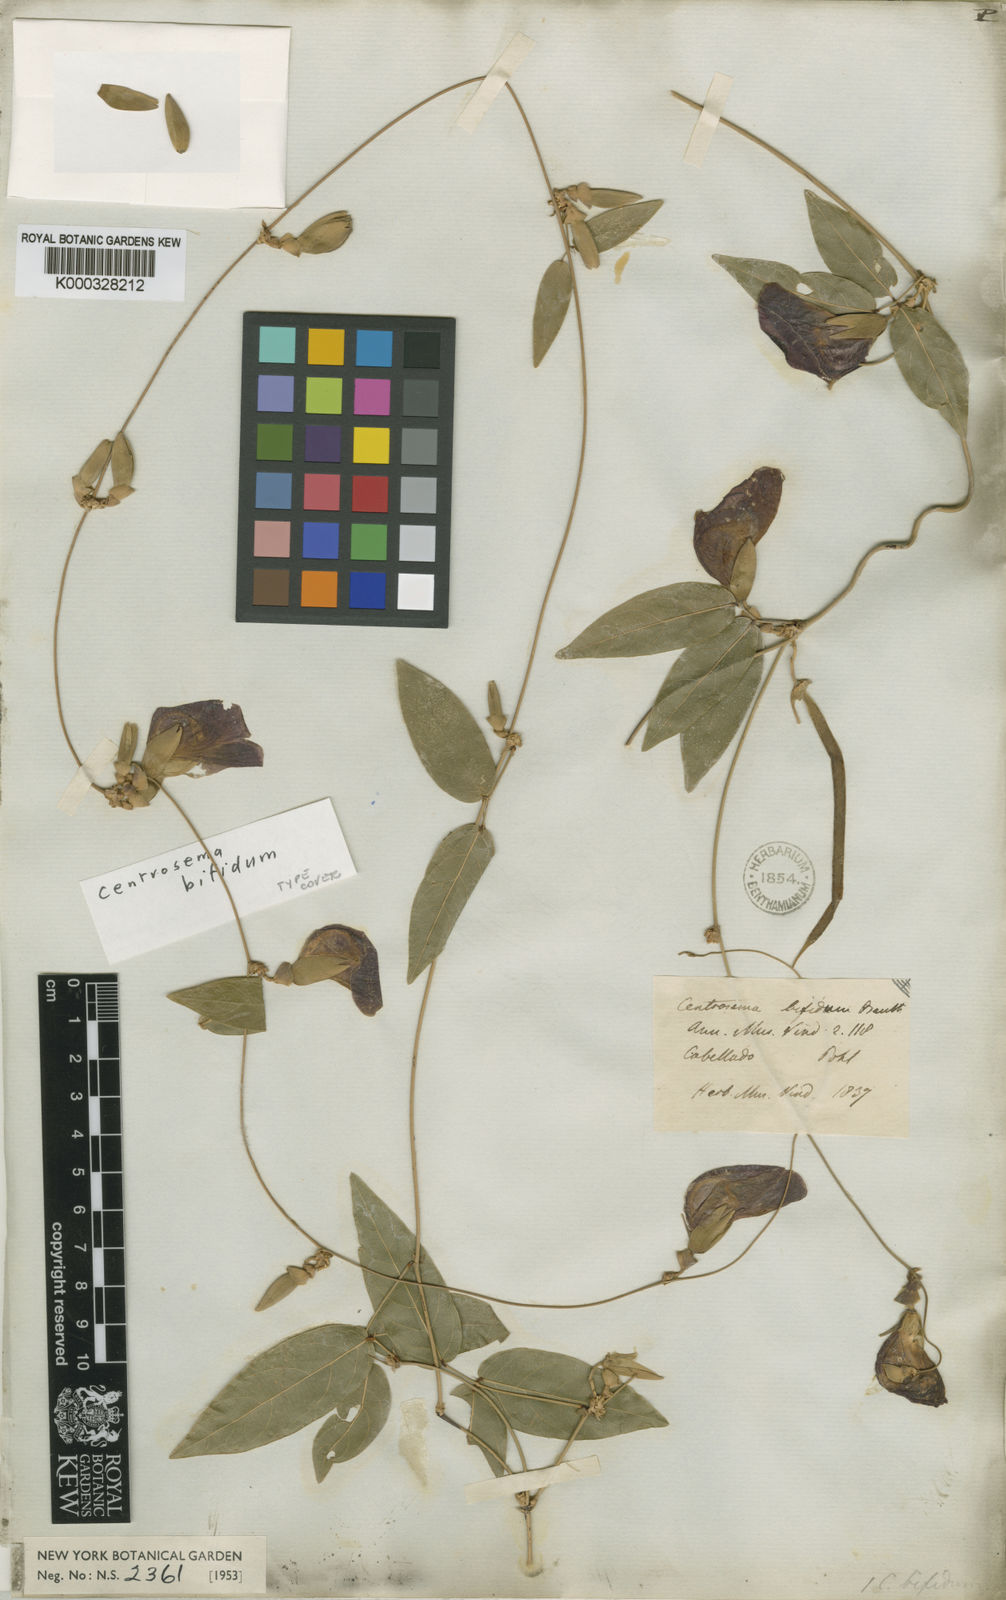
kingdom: Plantae
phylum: Tracheophyta
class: Magnoliopsida
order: Fabales
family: Fabaceae
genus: Centrosema
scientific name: Centrosema bifidum
